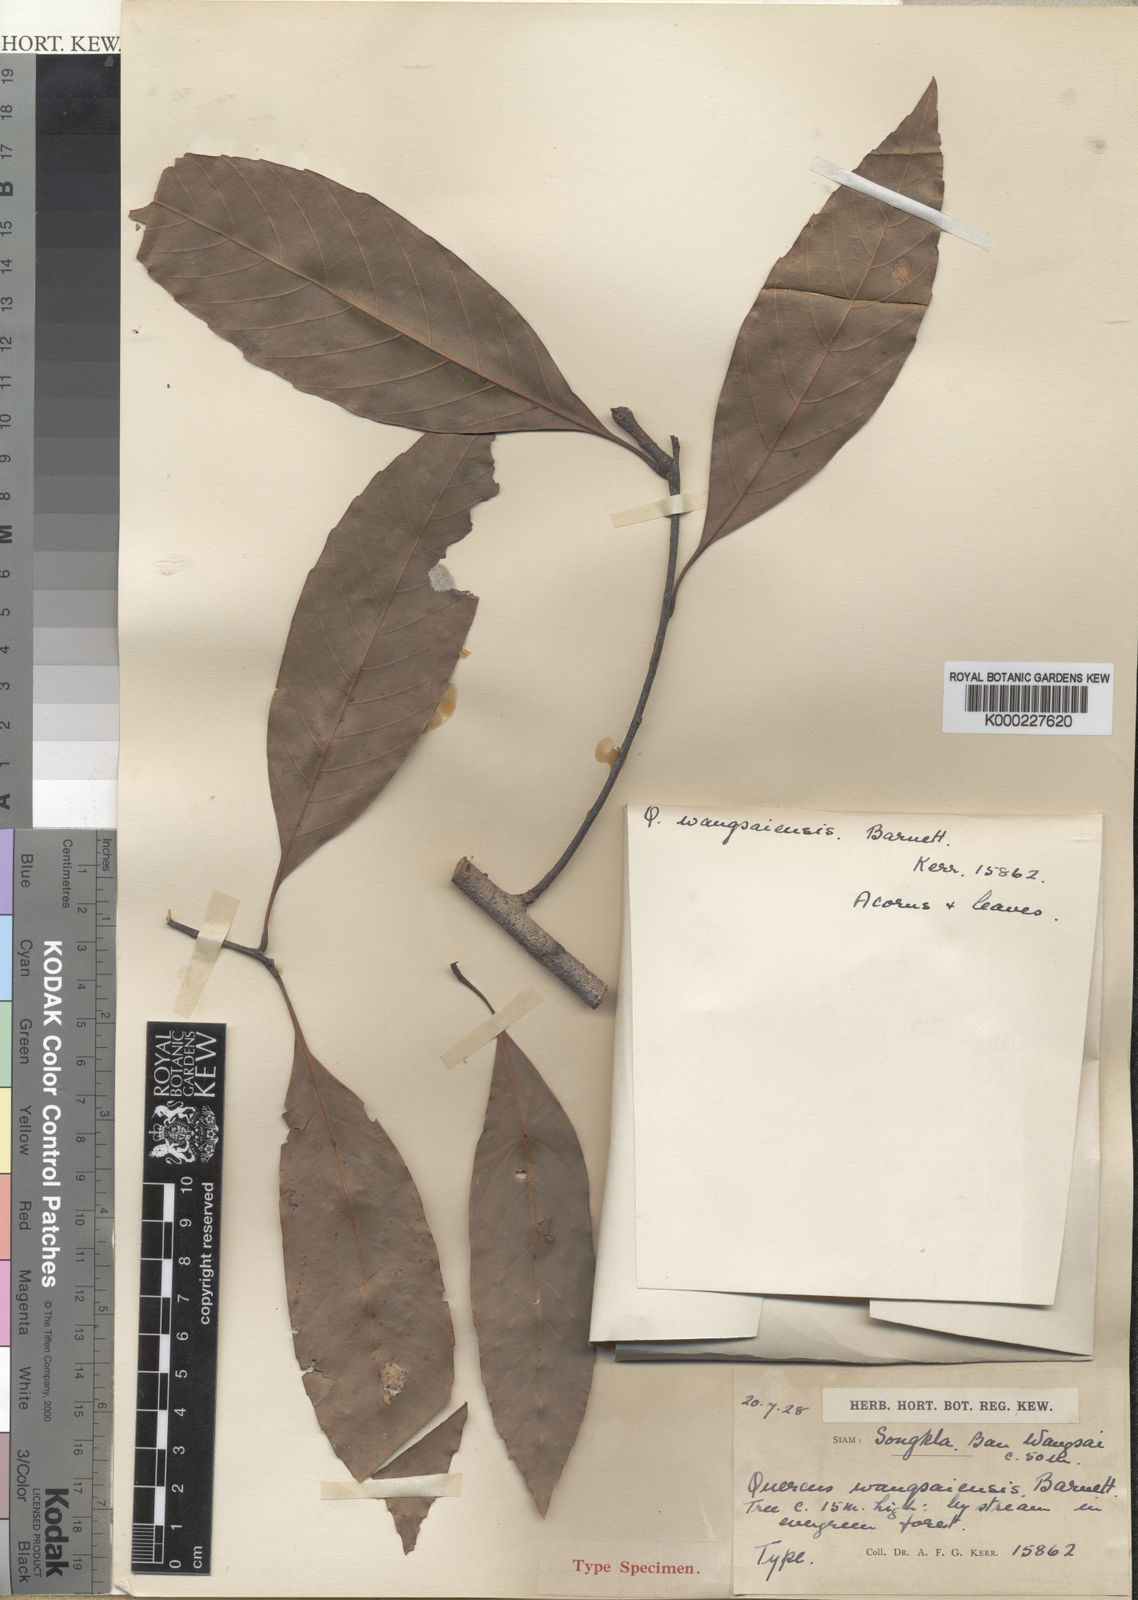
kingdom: Plantae
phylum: Tracheophyta
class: Magnoliopsida
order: Fagales
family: Fagaceae
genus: Quercus
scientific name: Quercus quangtriensis
